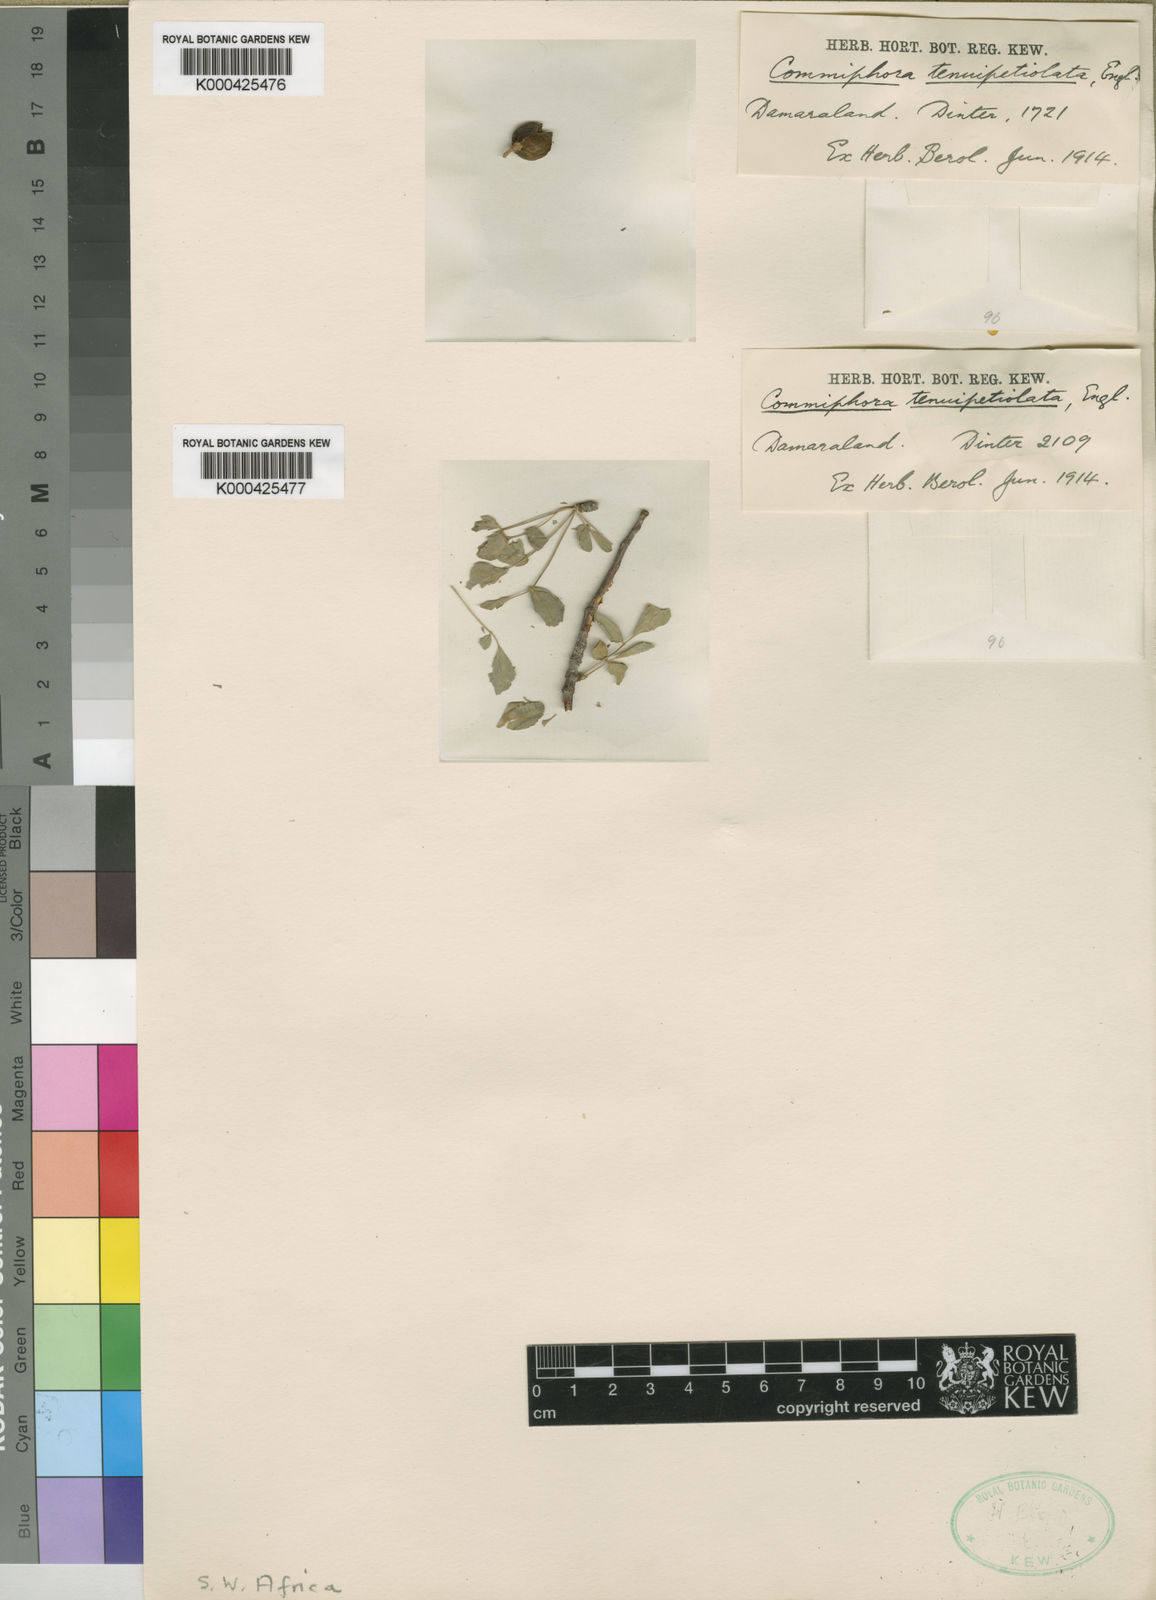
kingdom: Plantae
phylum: Tracheophyta
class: Magnoliopsida
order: Sapindales
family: Burseraceae
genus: Commiphora
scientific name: Commiphora tenuipetiolata
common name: Satin-bark corkwood
